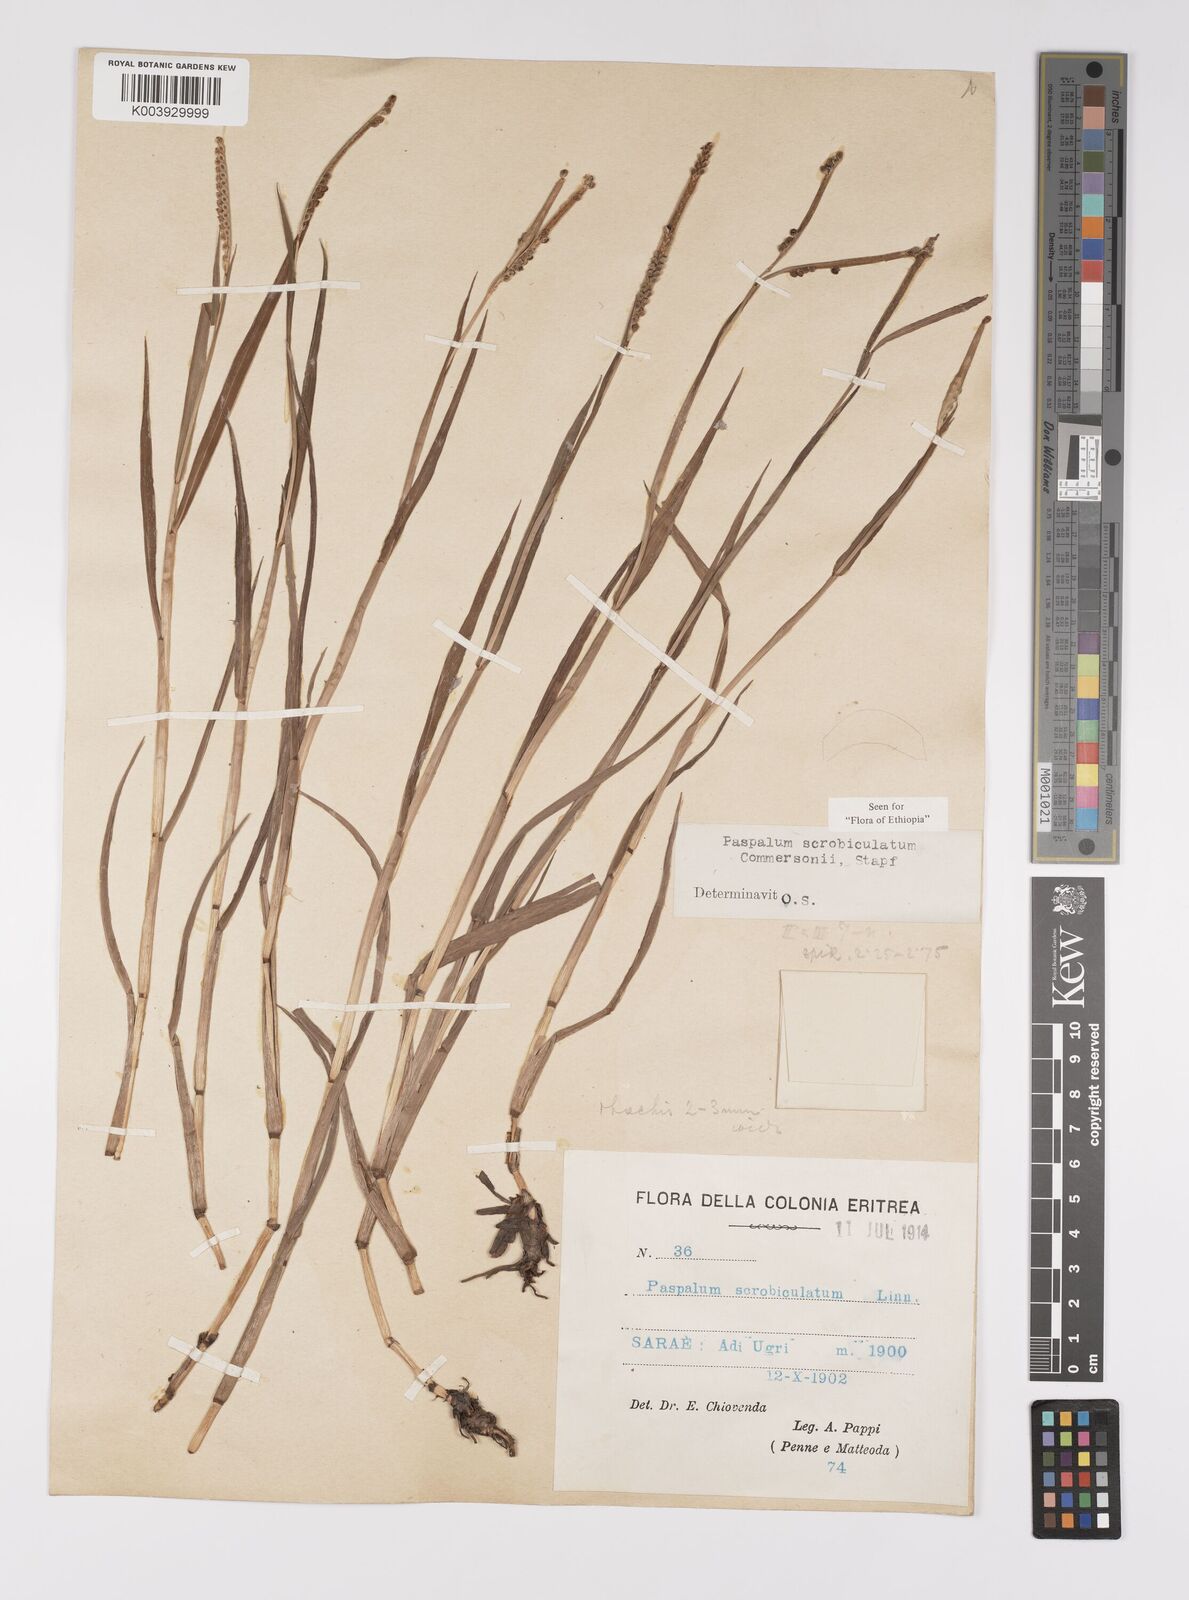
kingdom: Plantae
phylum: Tracheophyta
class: Liliopsida
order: Poales
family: Poaceae
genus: Paspalum
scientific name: Paspalum scrobiculatum
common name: Kodo millet
